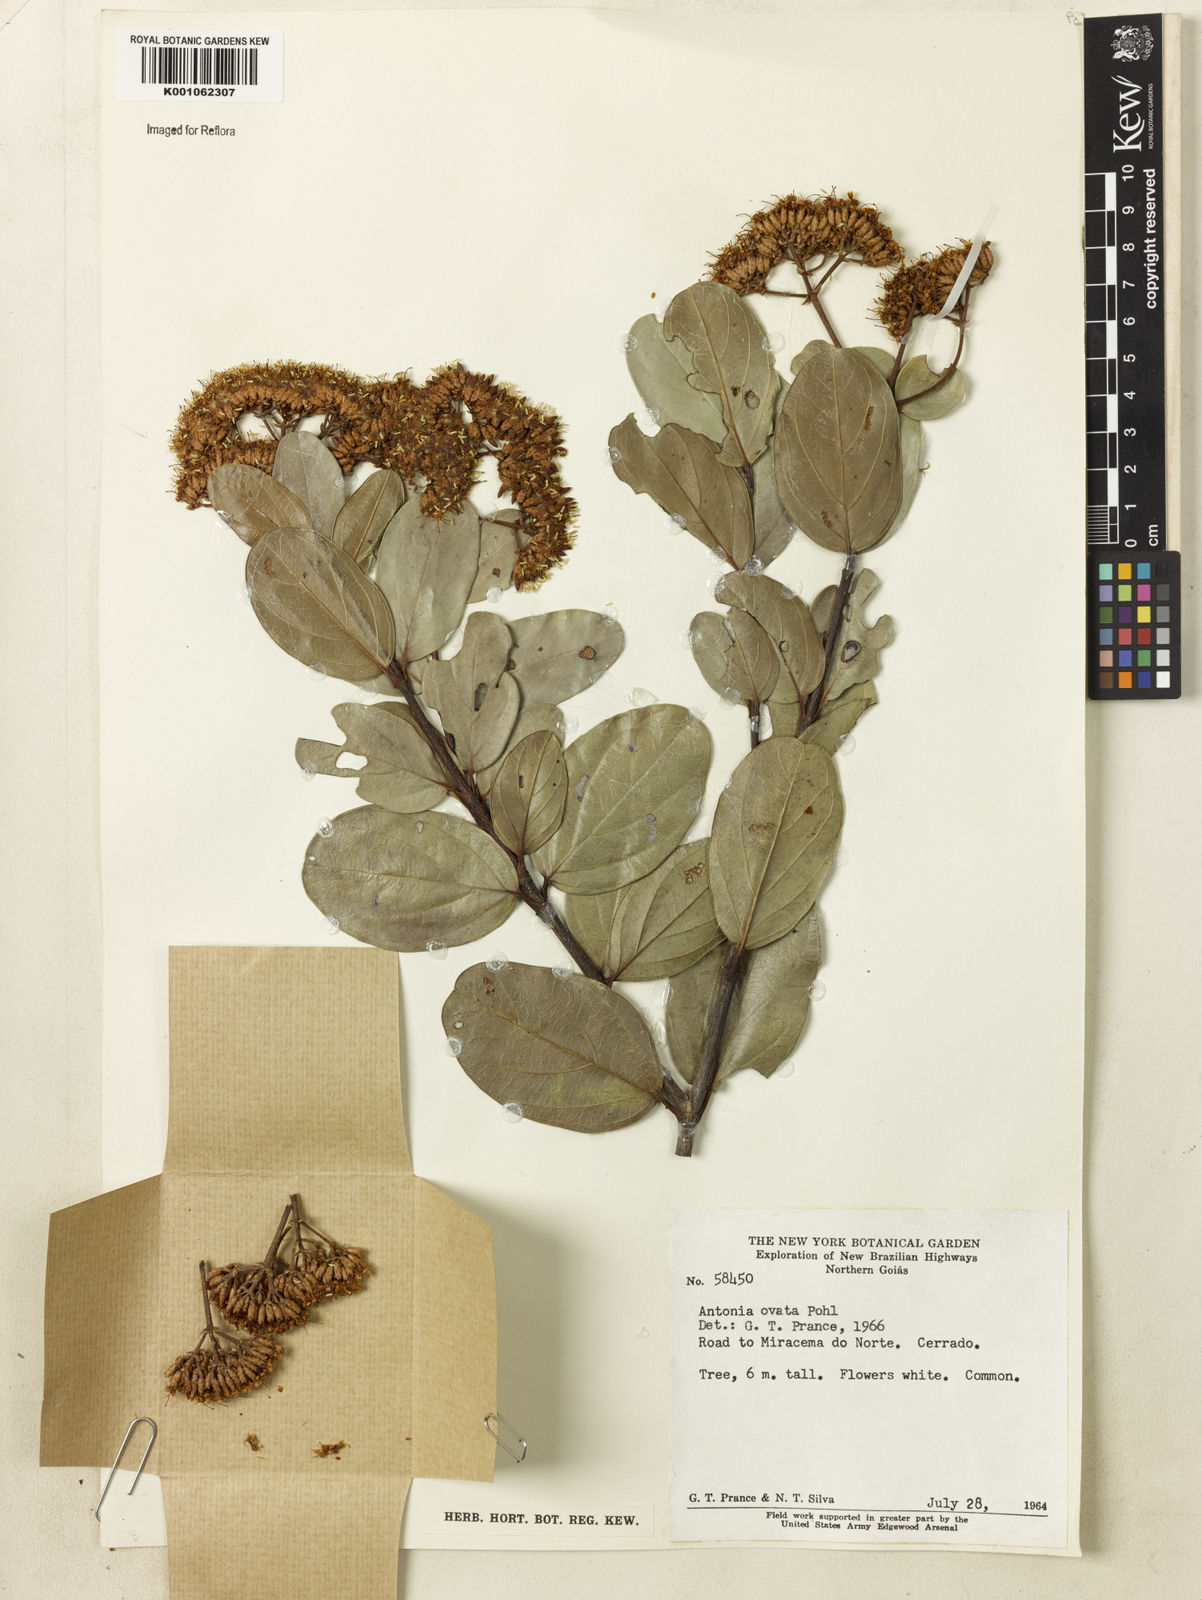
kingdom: Plantae
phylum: Tracheophyta
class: Magnoliopsida
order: Gentianales
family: Loganiaceae
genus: Antonia
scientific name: Antonia ovata
